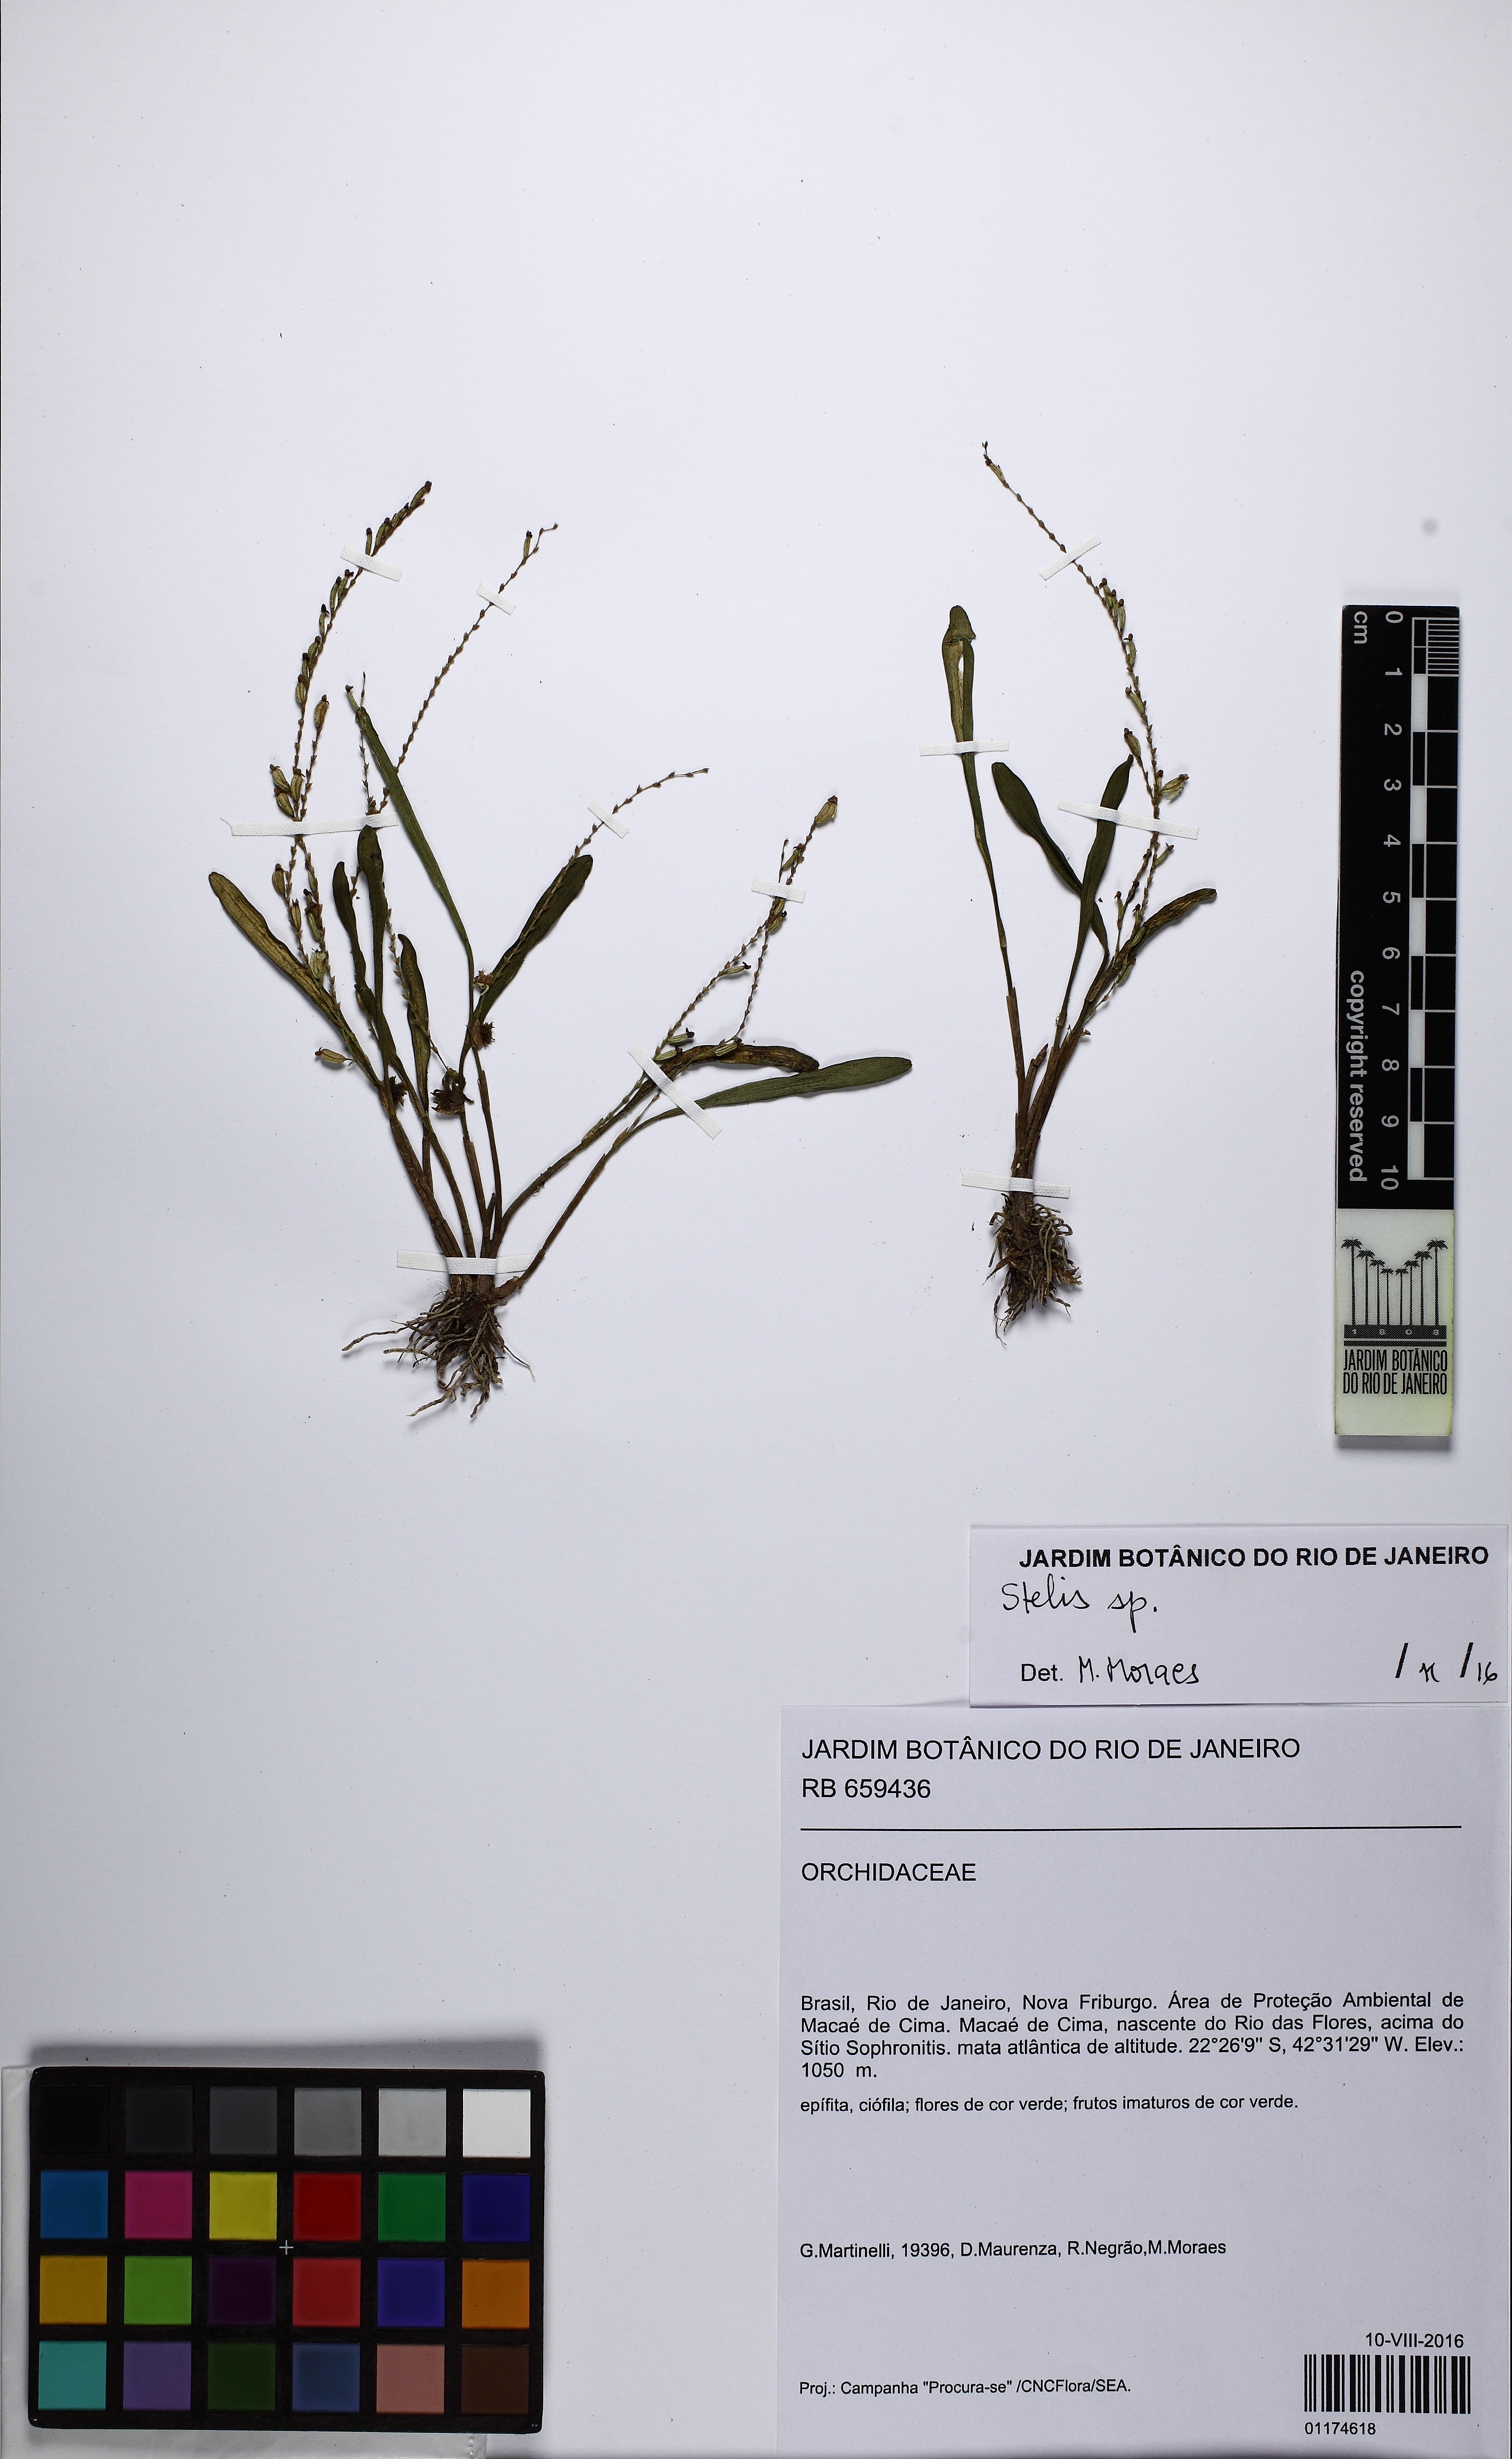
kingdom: Plantae
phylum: Tracheophyta
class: Liliopsida
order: Asparagales
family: Orchidaceae
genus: Stelis
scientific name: Stelis
